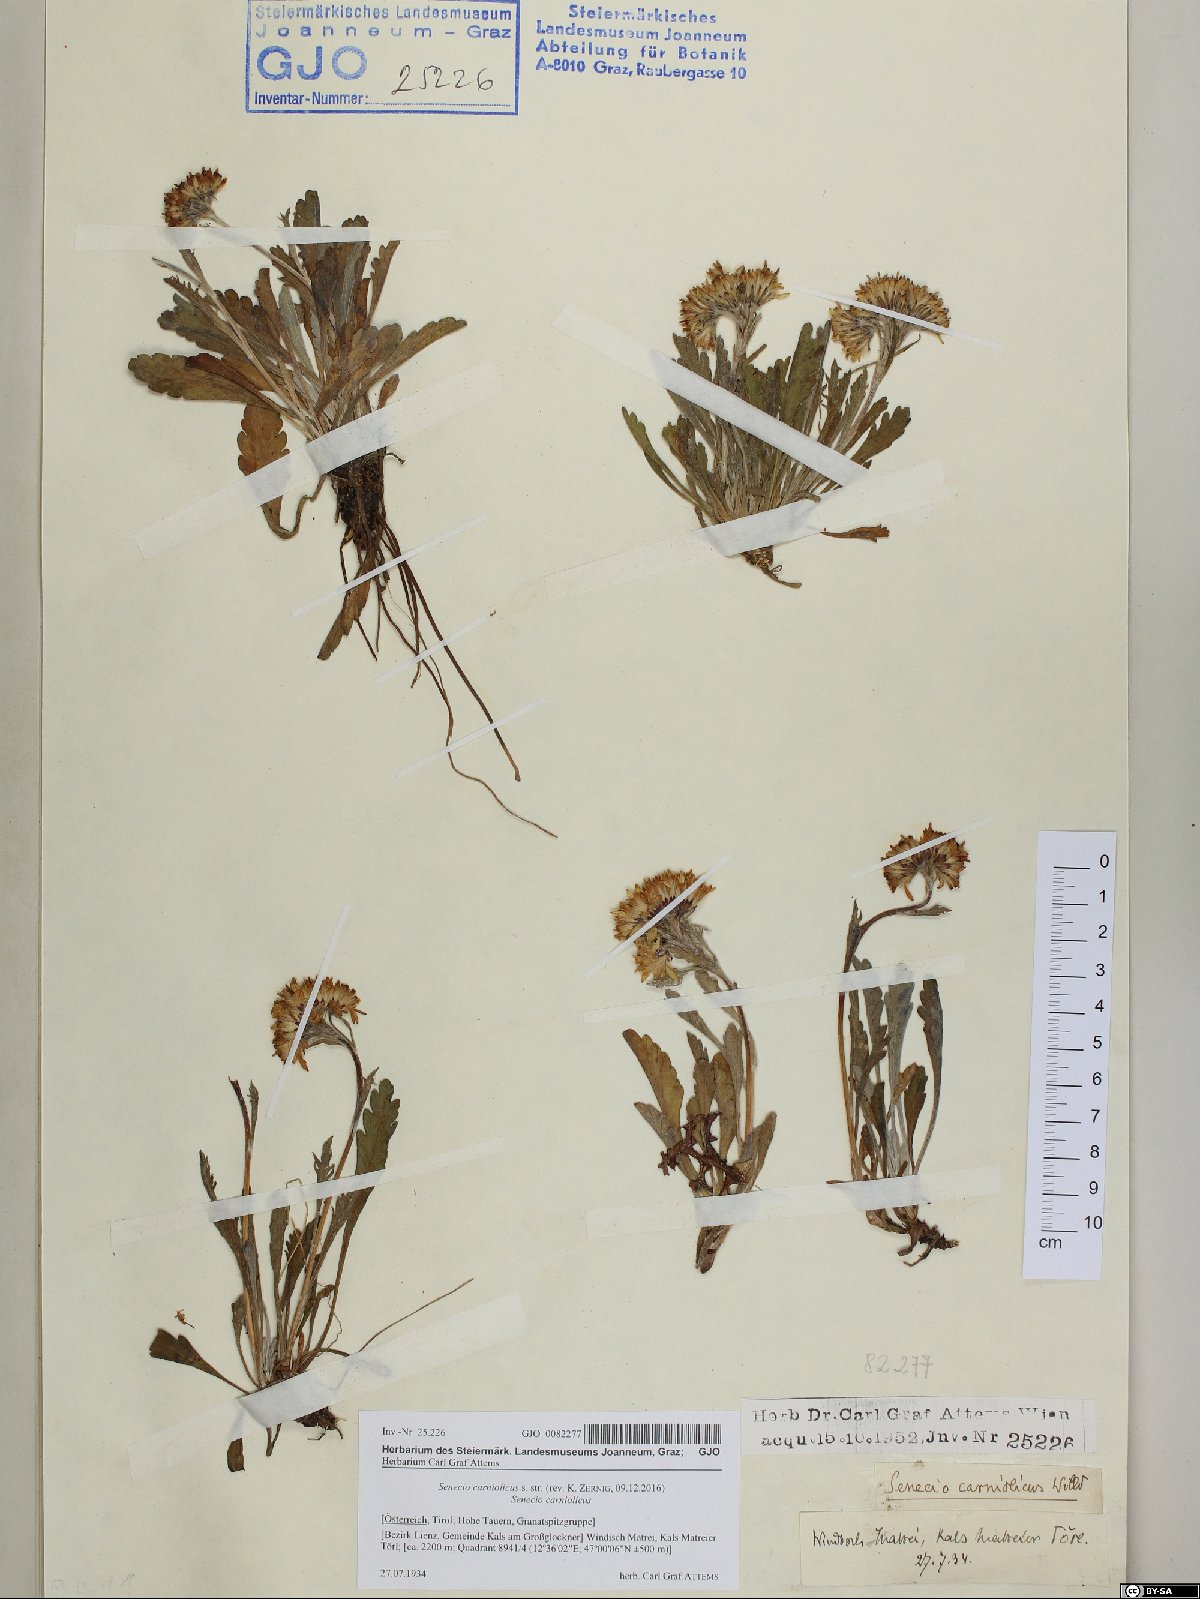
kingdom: Plantae
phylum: Tracheophyta
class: Magnoliopsida
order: Asterales
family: Asteraceae
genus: Jacobaea
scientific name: Jacobaea carniolica
